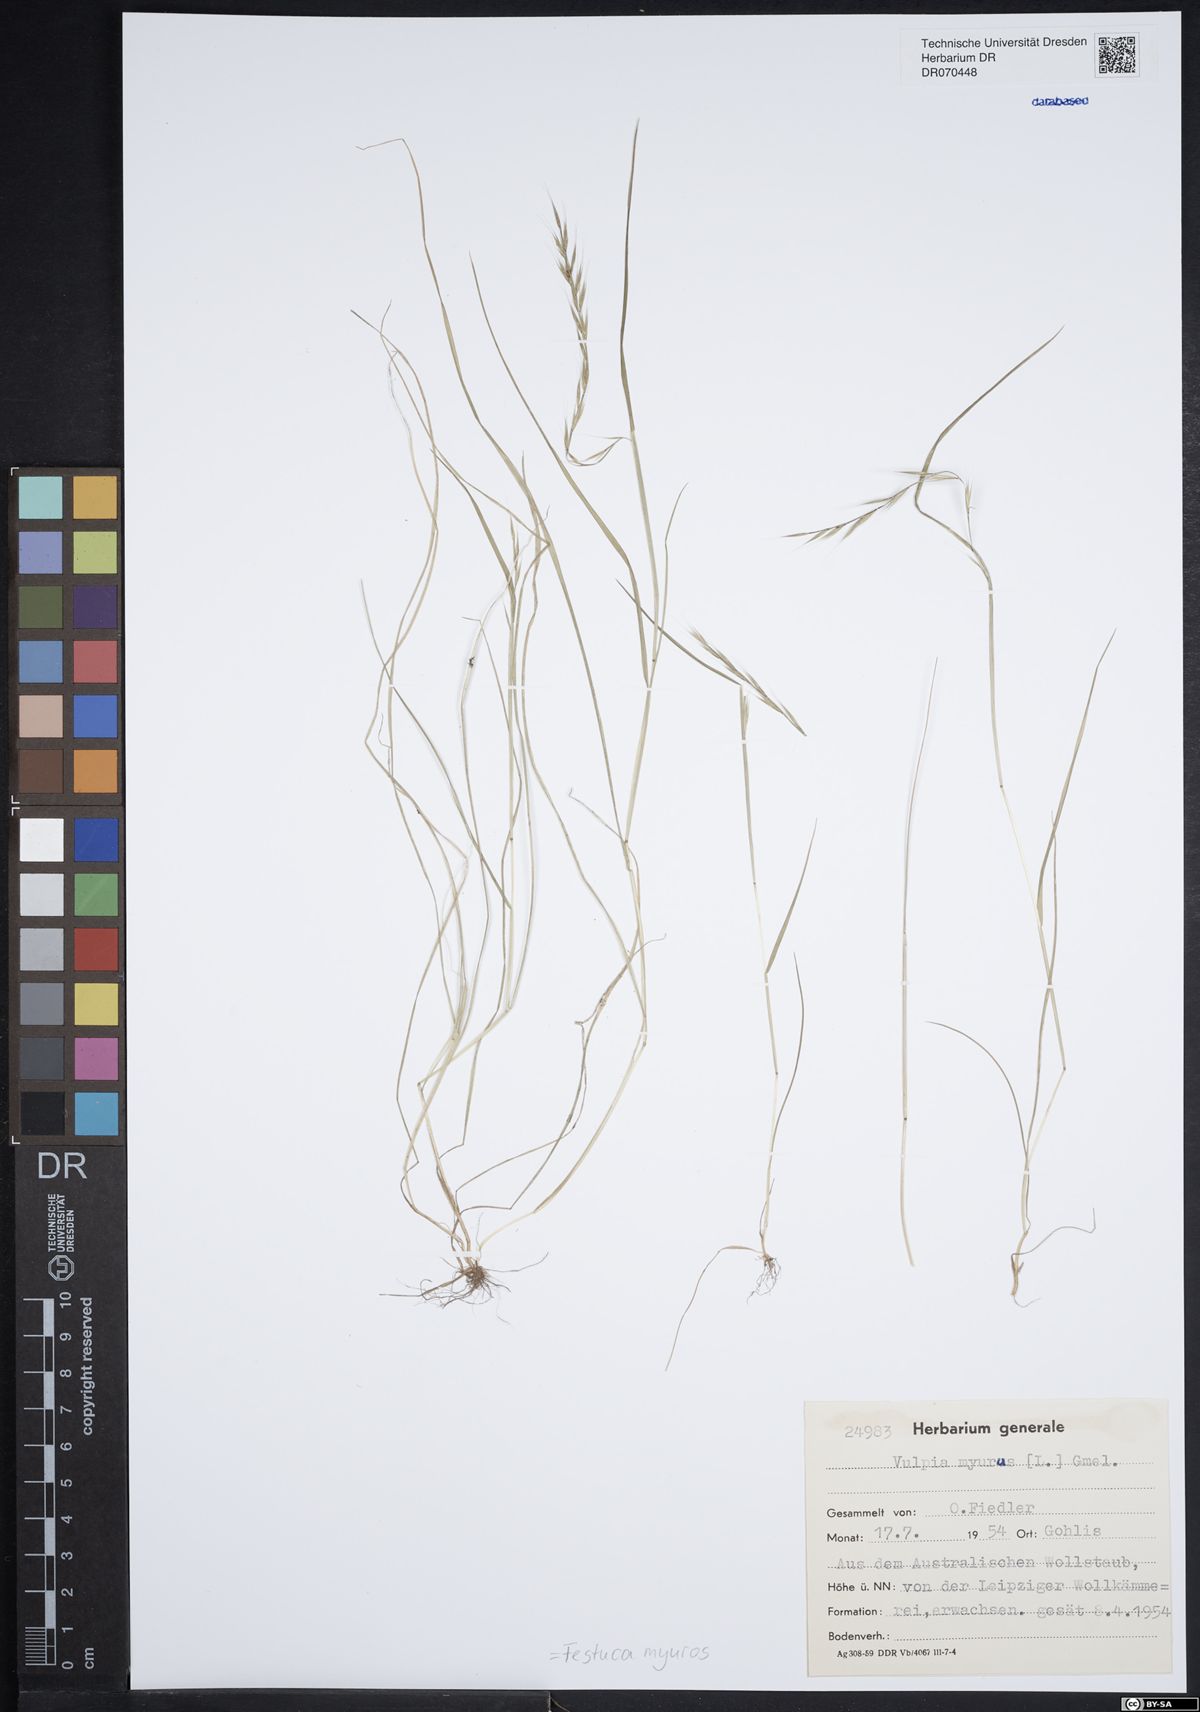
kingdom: Plantae
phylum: Tracheophyta
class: Liliopsida
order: Poales
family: Poaceae
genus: Festuca
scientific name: Festuca myuros
